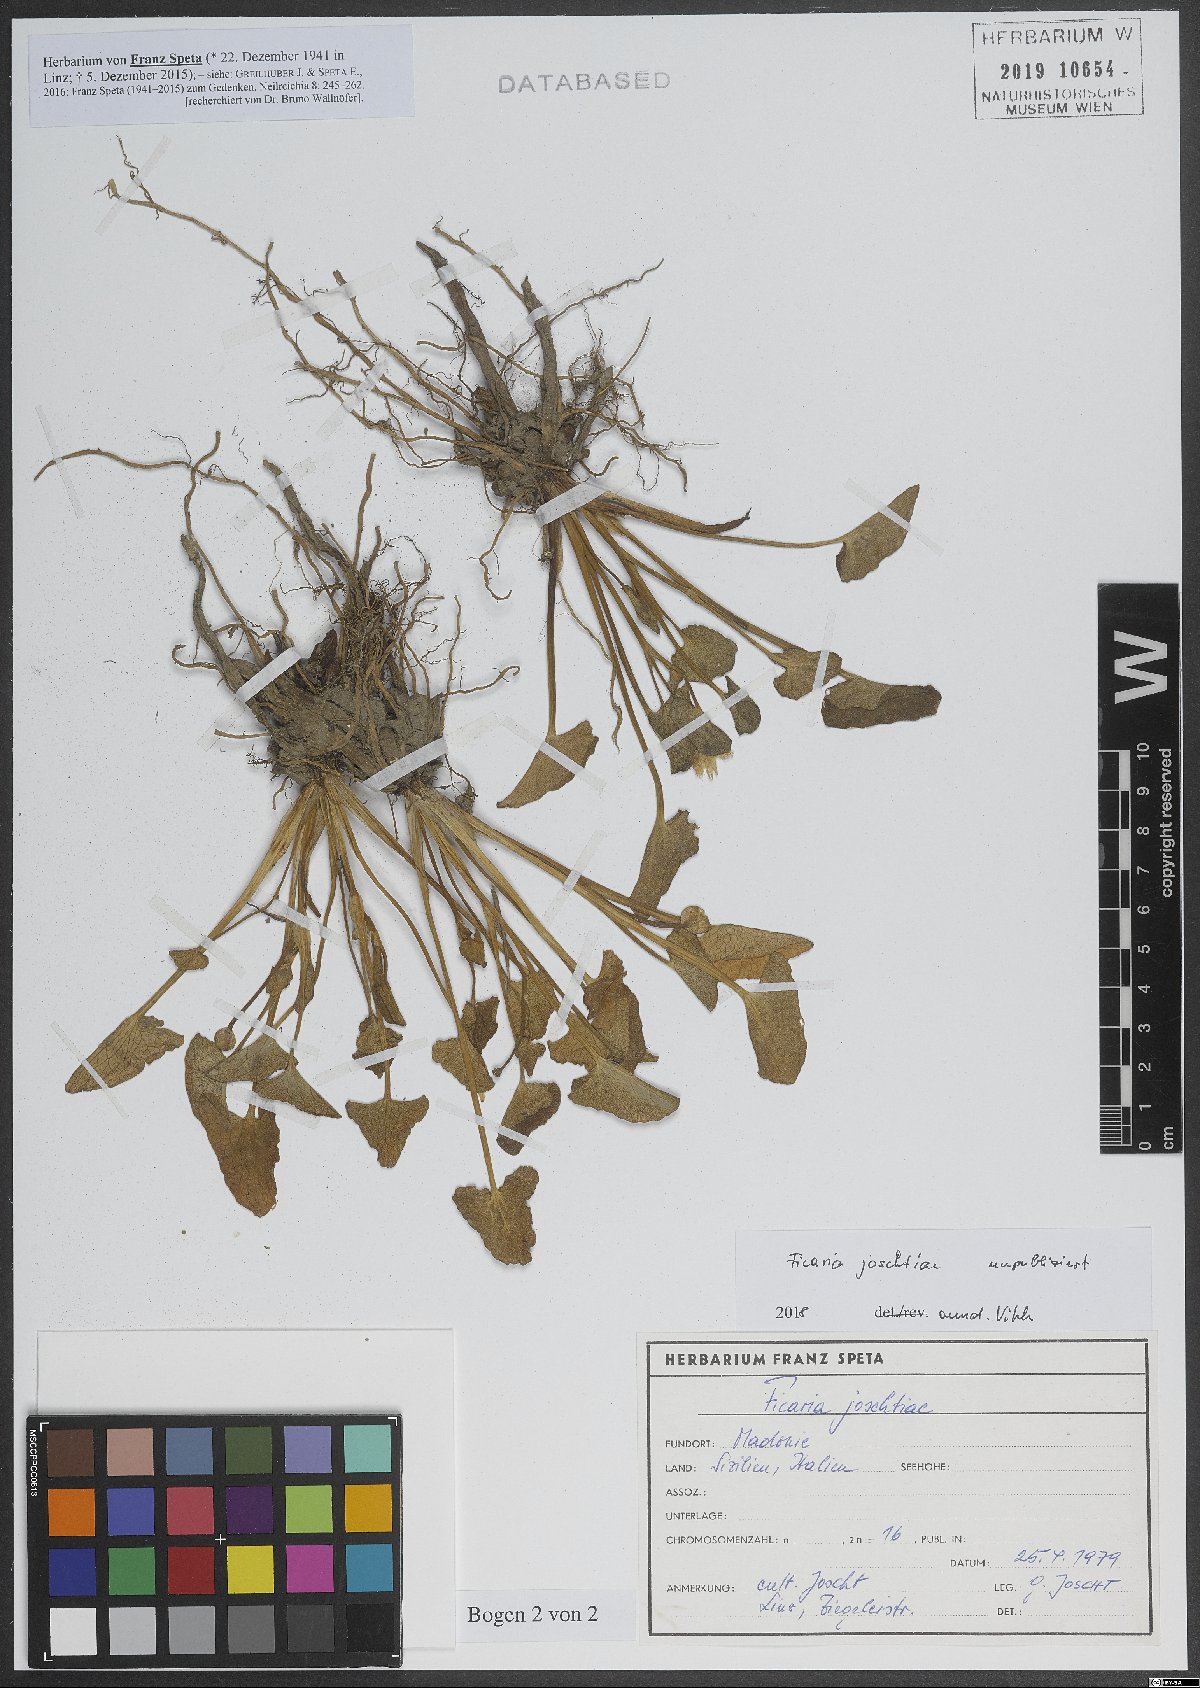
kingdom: Plantae
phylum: Tracheophyta
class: Magnoliopsida
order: Ranunculales
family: Ranunculaceae
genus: Ficaria
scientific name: Ficaria
